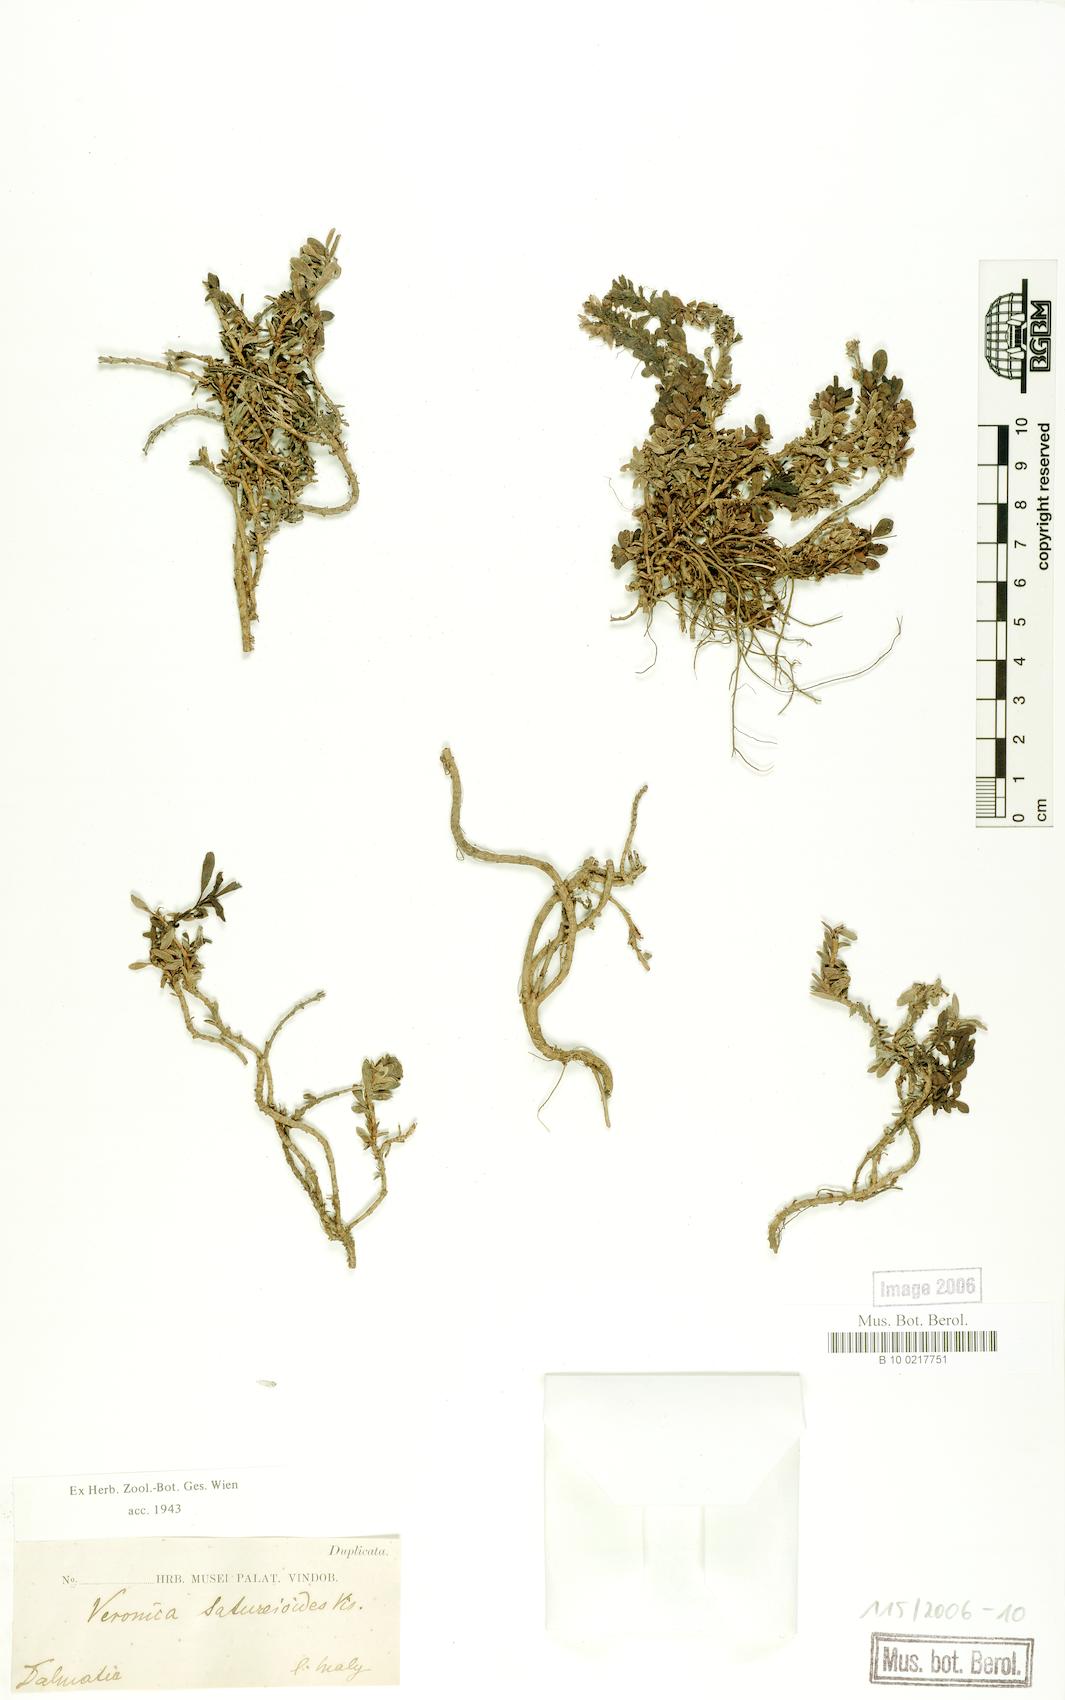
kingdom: Plantae
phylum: Tracheophyta
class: Magnoliopsida
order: Lamiales
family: Plantaginaceae
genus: Veronica
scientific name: Veronica saturejoides
